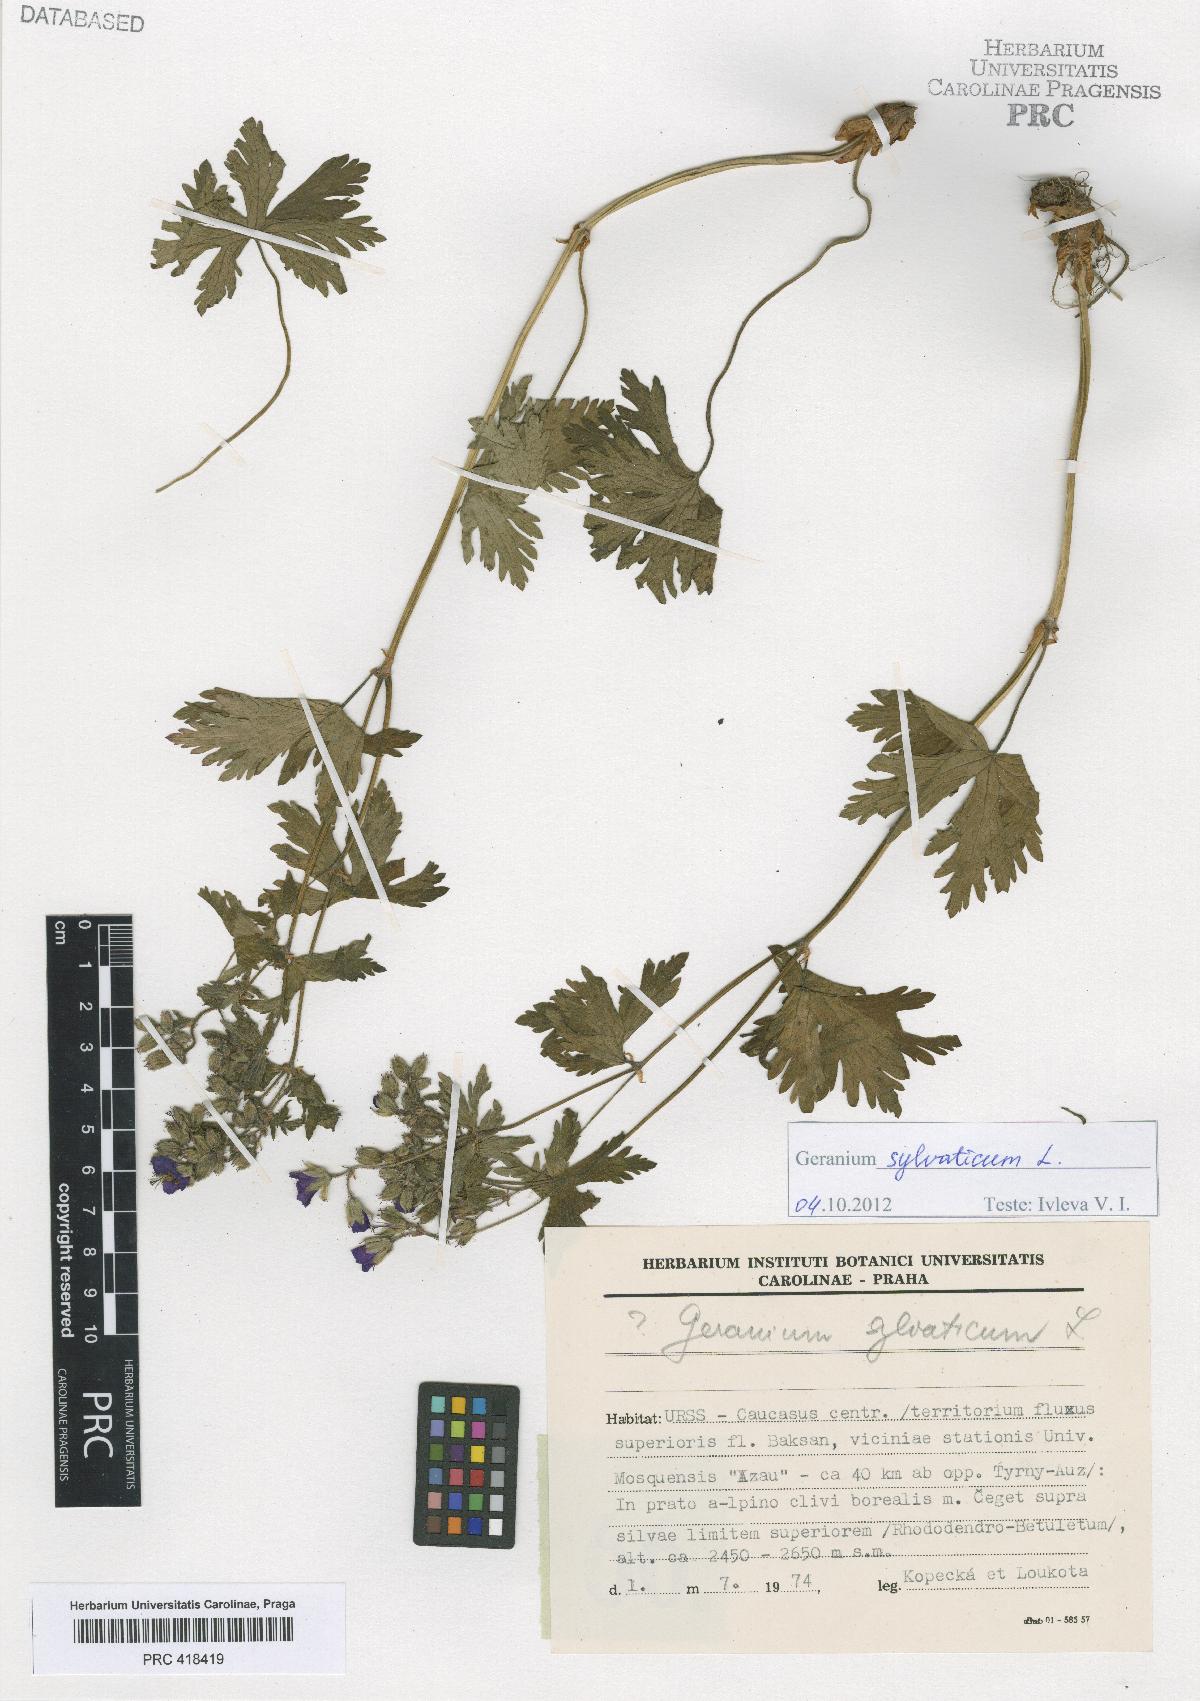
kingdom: Plantae
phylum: Tracheophyta
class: Magnoliopsida
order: Geraniales
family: Geraniaceae
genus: Geranium
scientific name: Geranium sylvaticum
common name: Wood crane's-bill
